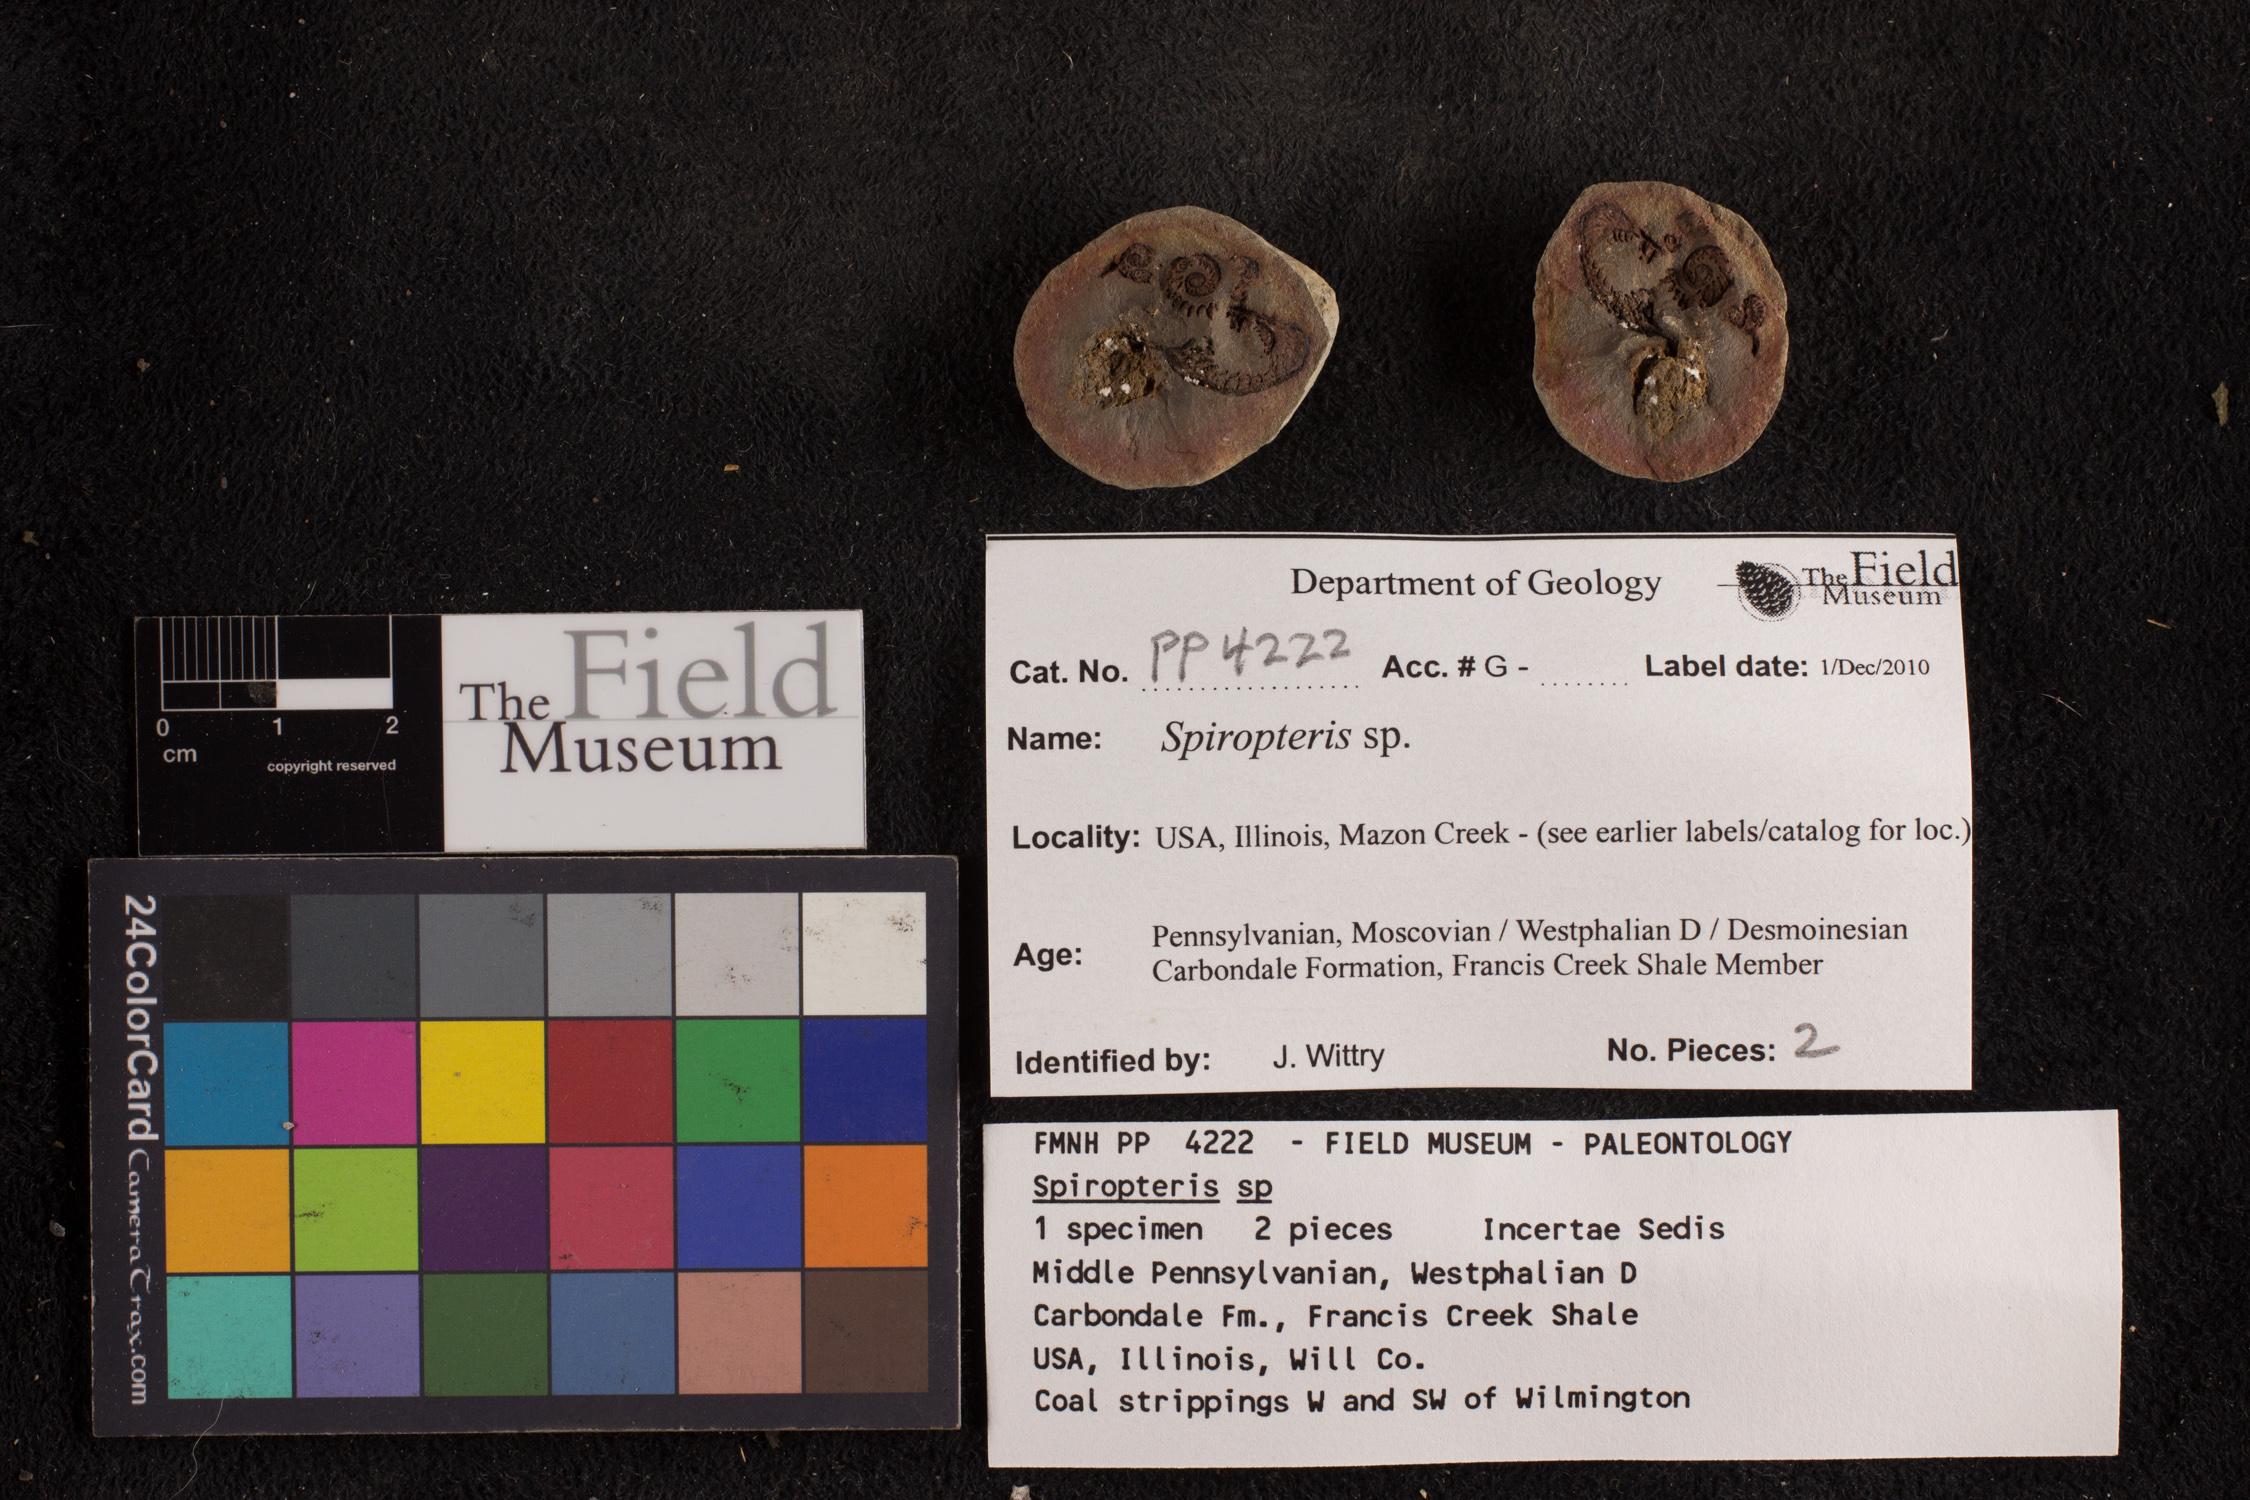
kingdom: Plantae
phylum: Tracheophyta
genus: Spiropteris
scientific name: Spiropteris
